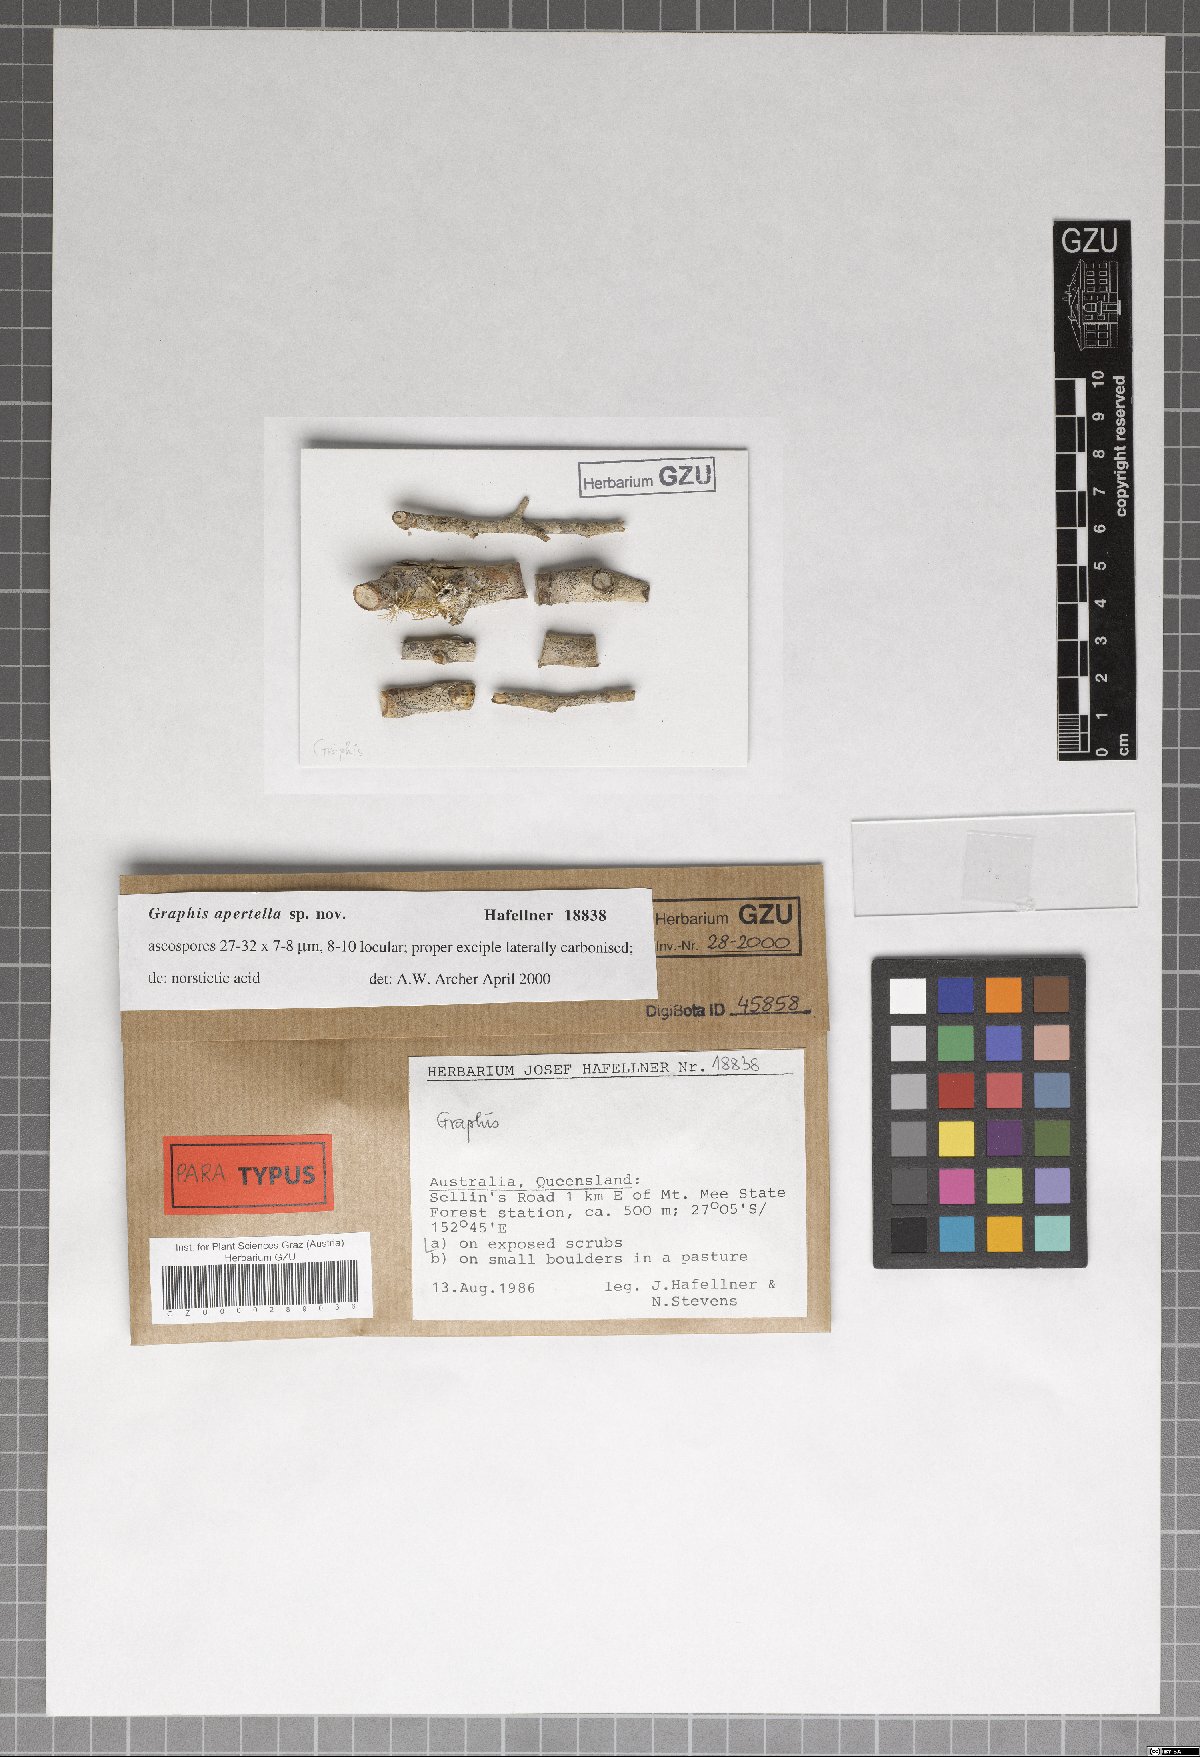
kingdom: Fungi
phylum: Ascomycota
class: Lecanoromycetes
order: Ostropales
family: Graphidaceae
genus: Graphis
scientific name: Graphis apertella
